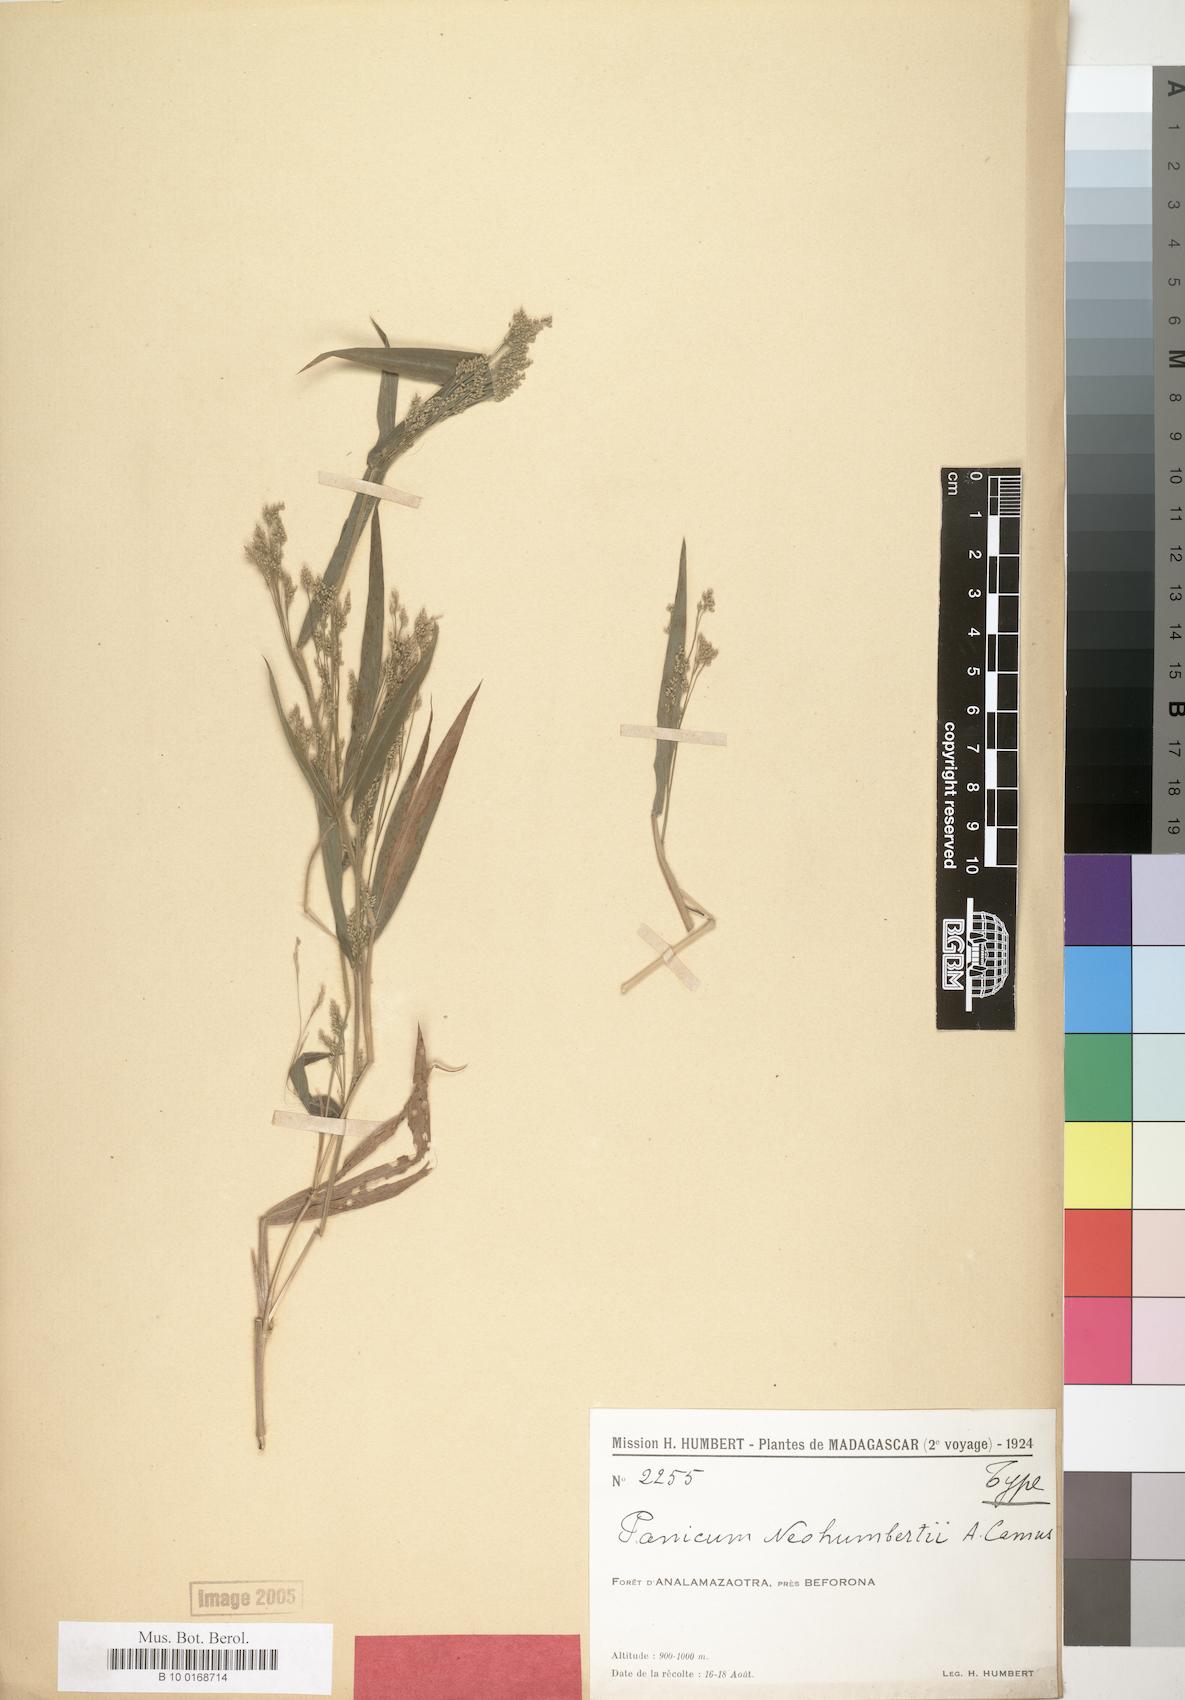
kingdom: Plantae
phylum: Tracheophyta
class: Liliopsida
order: Poales
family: Poaceae
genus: Panicum
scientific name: Panicum mitopus
